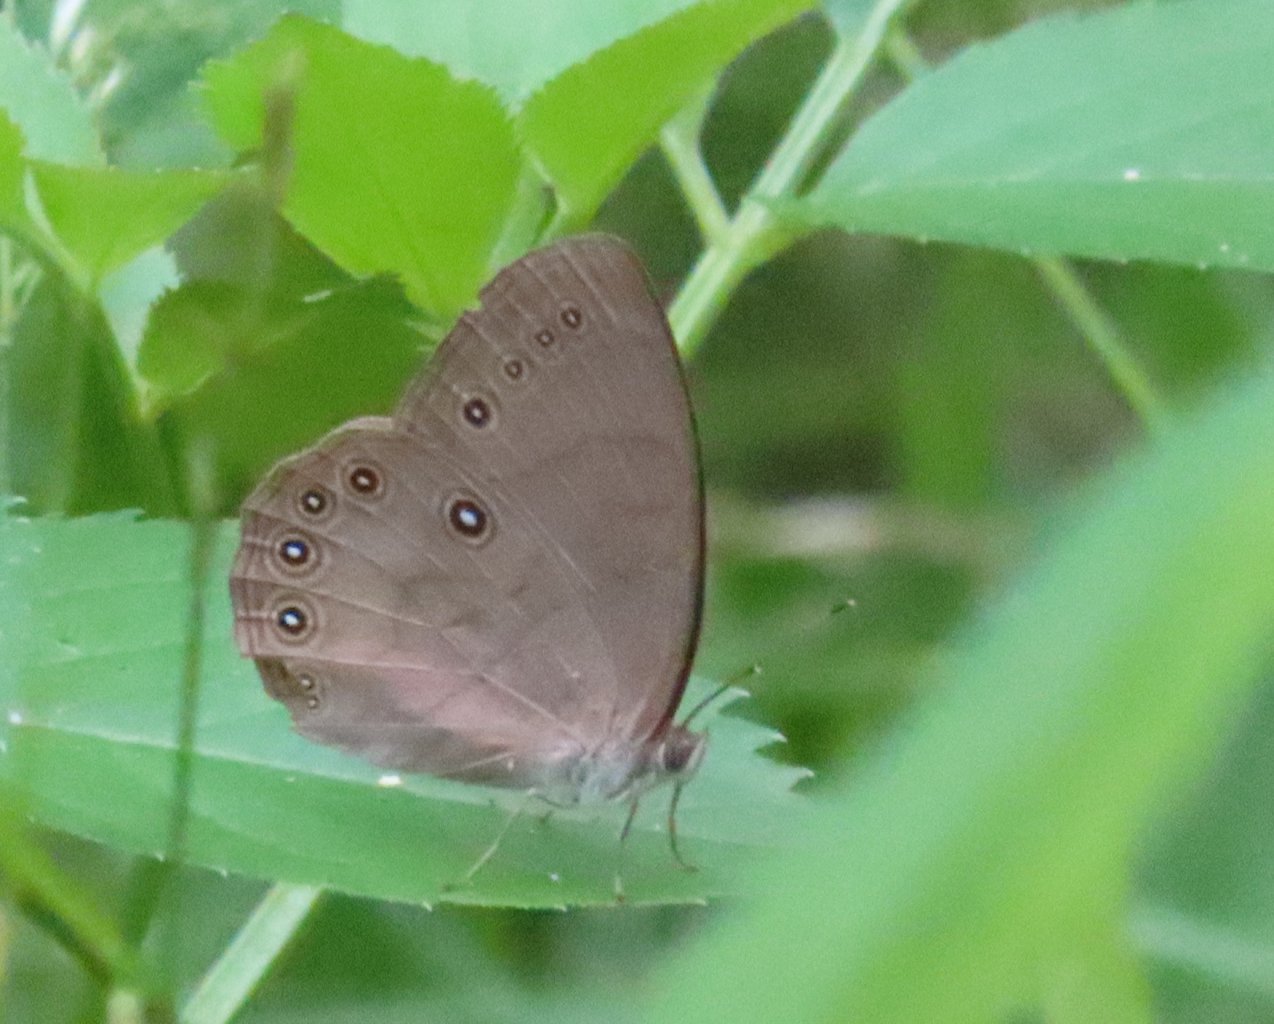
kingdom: Animalia
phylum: Arthropoda
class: Insecta
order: Lepidoptera
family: Nymphalidae
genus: Lethe
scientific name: Lethe eurydice
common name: Appalachian Eyed Brown
